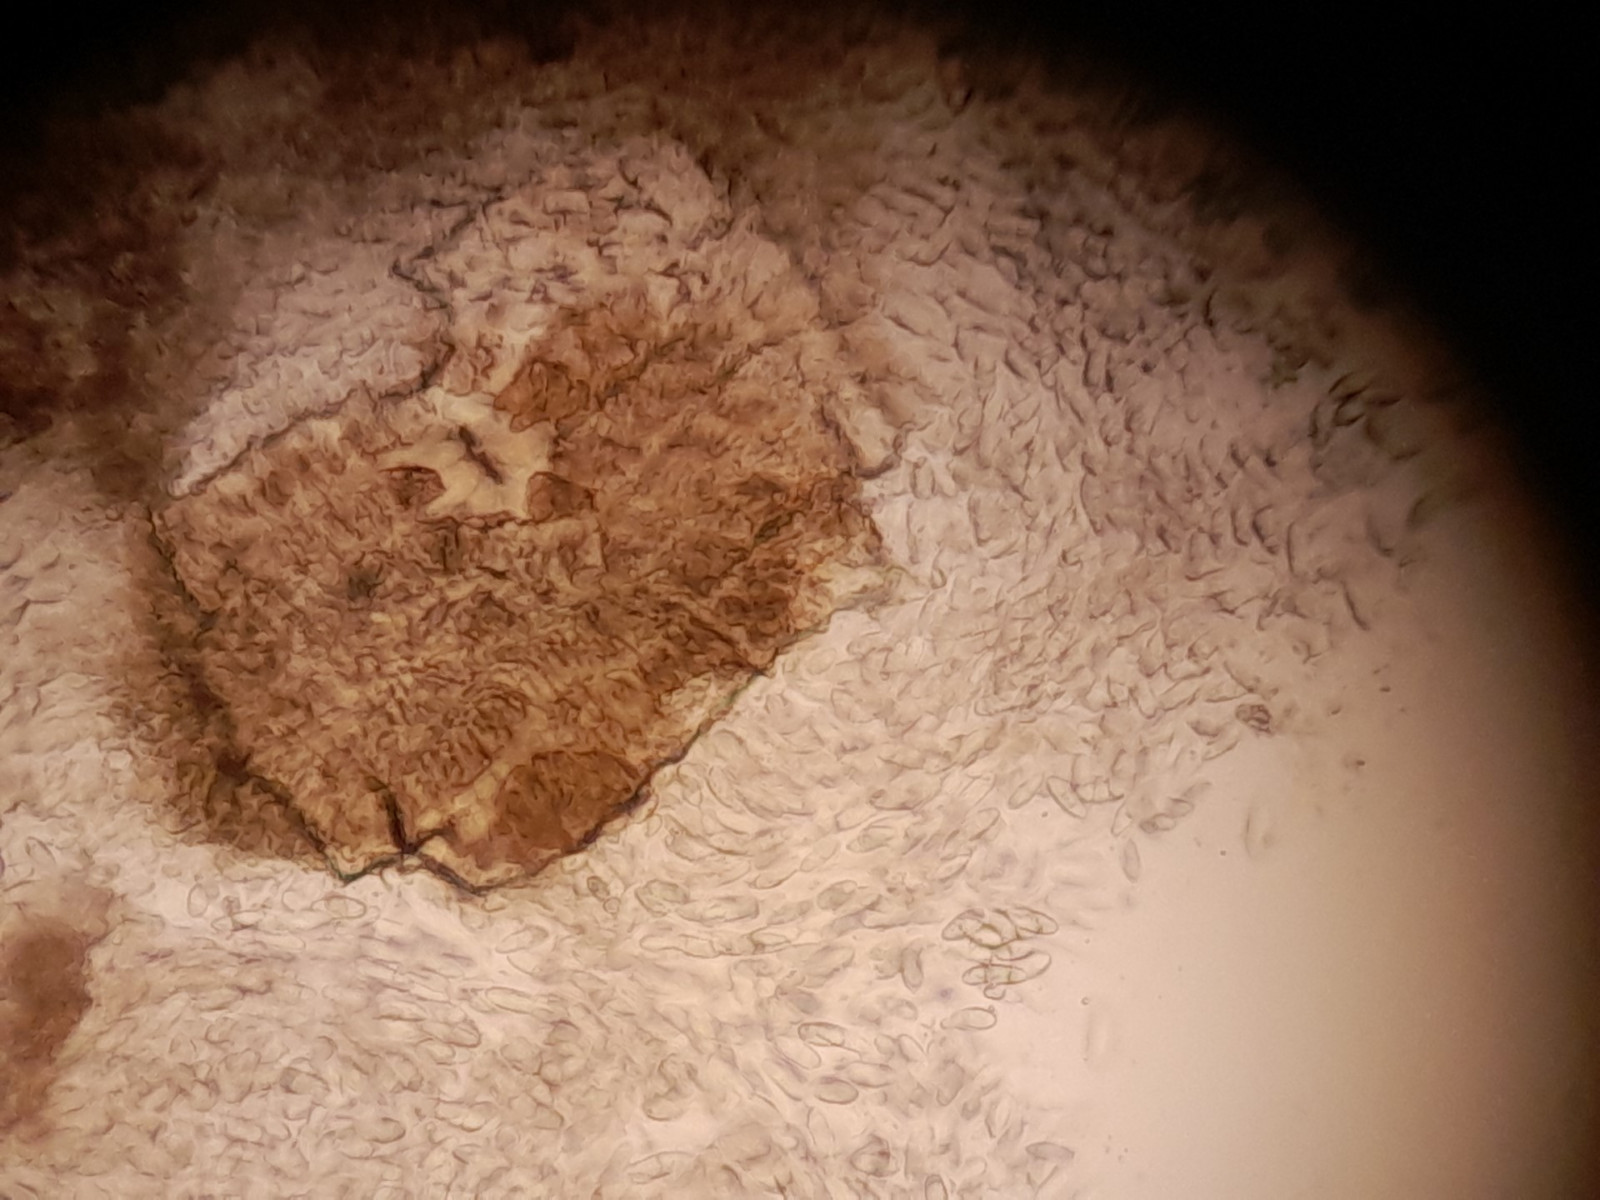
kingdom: Fungi
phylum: Ascomycota
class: Sordariomycetes
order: Diaporthales
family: Gnomoniaceae
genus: Plagiostoma
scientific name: Plagiostoma salicellum
